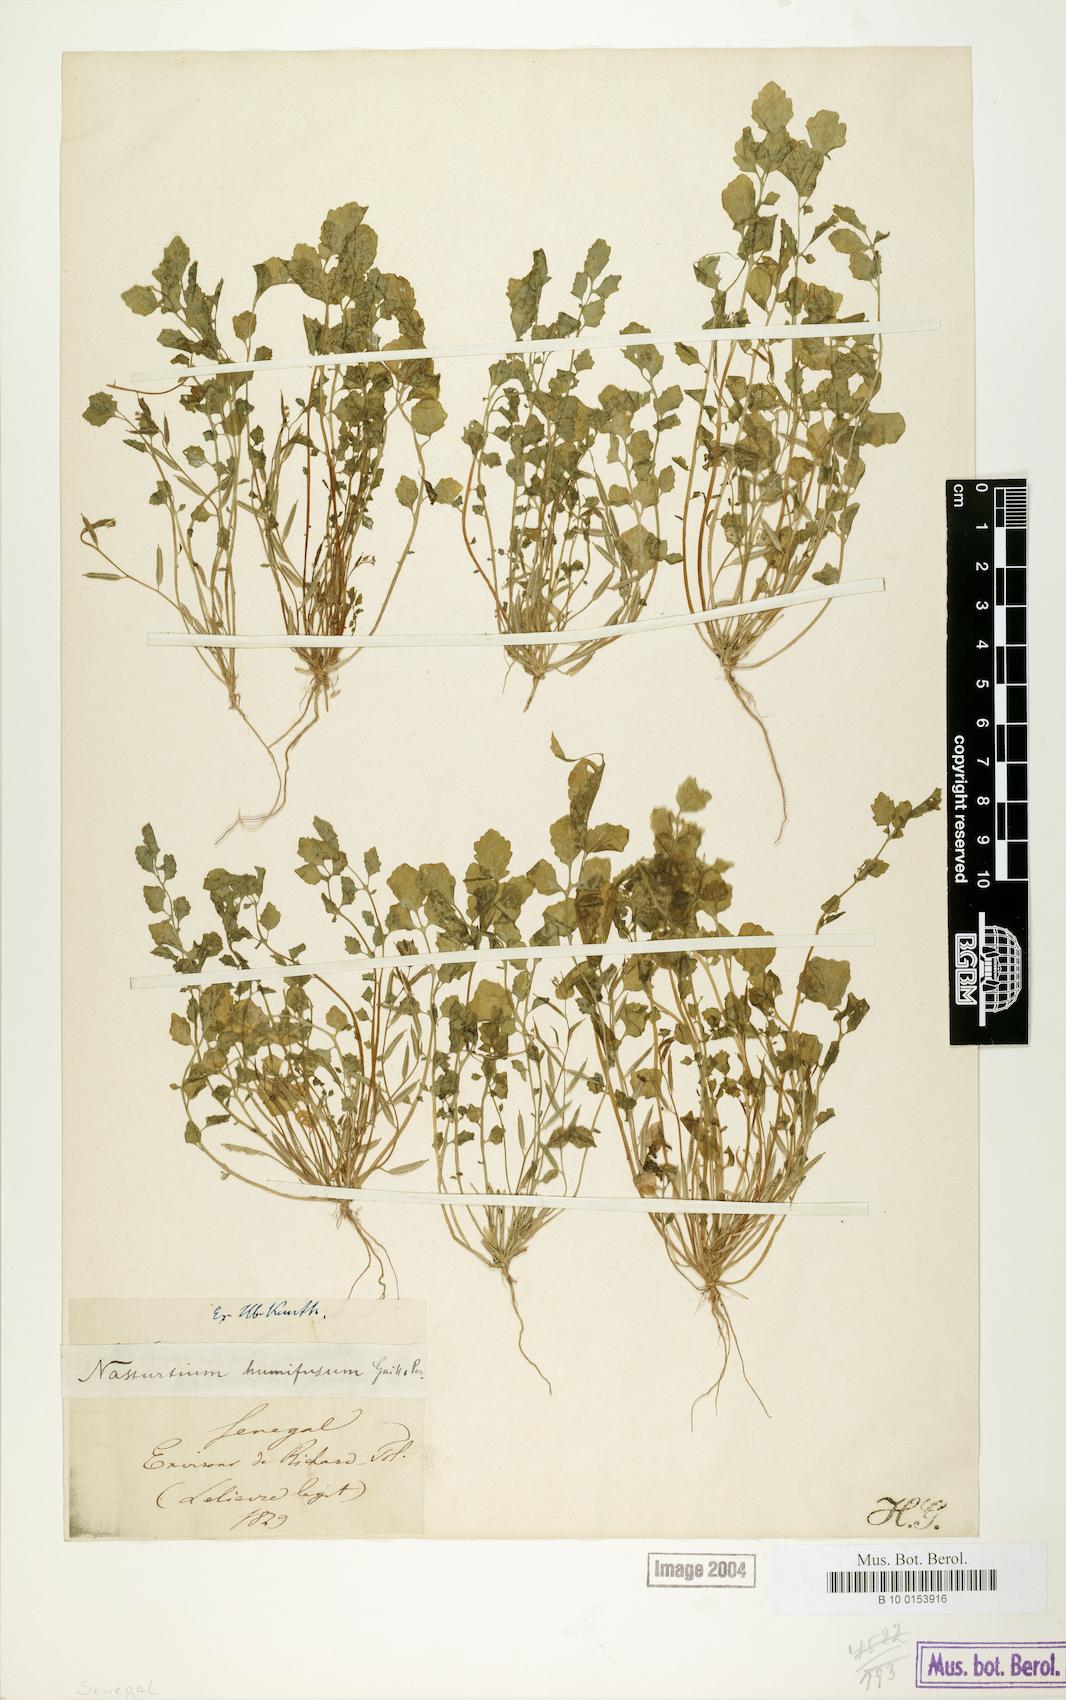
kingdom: Plantae
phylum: Tracheophyta
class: Magnoliopsida
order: Brassicales
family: Brassicaceae
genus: Rorippa
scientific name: Rorippa humifusa
